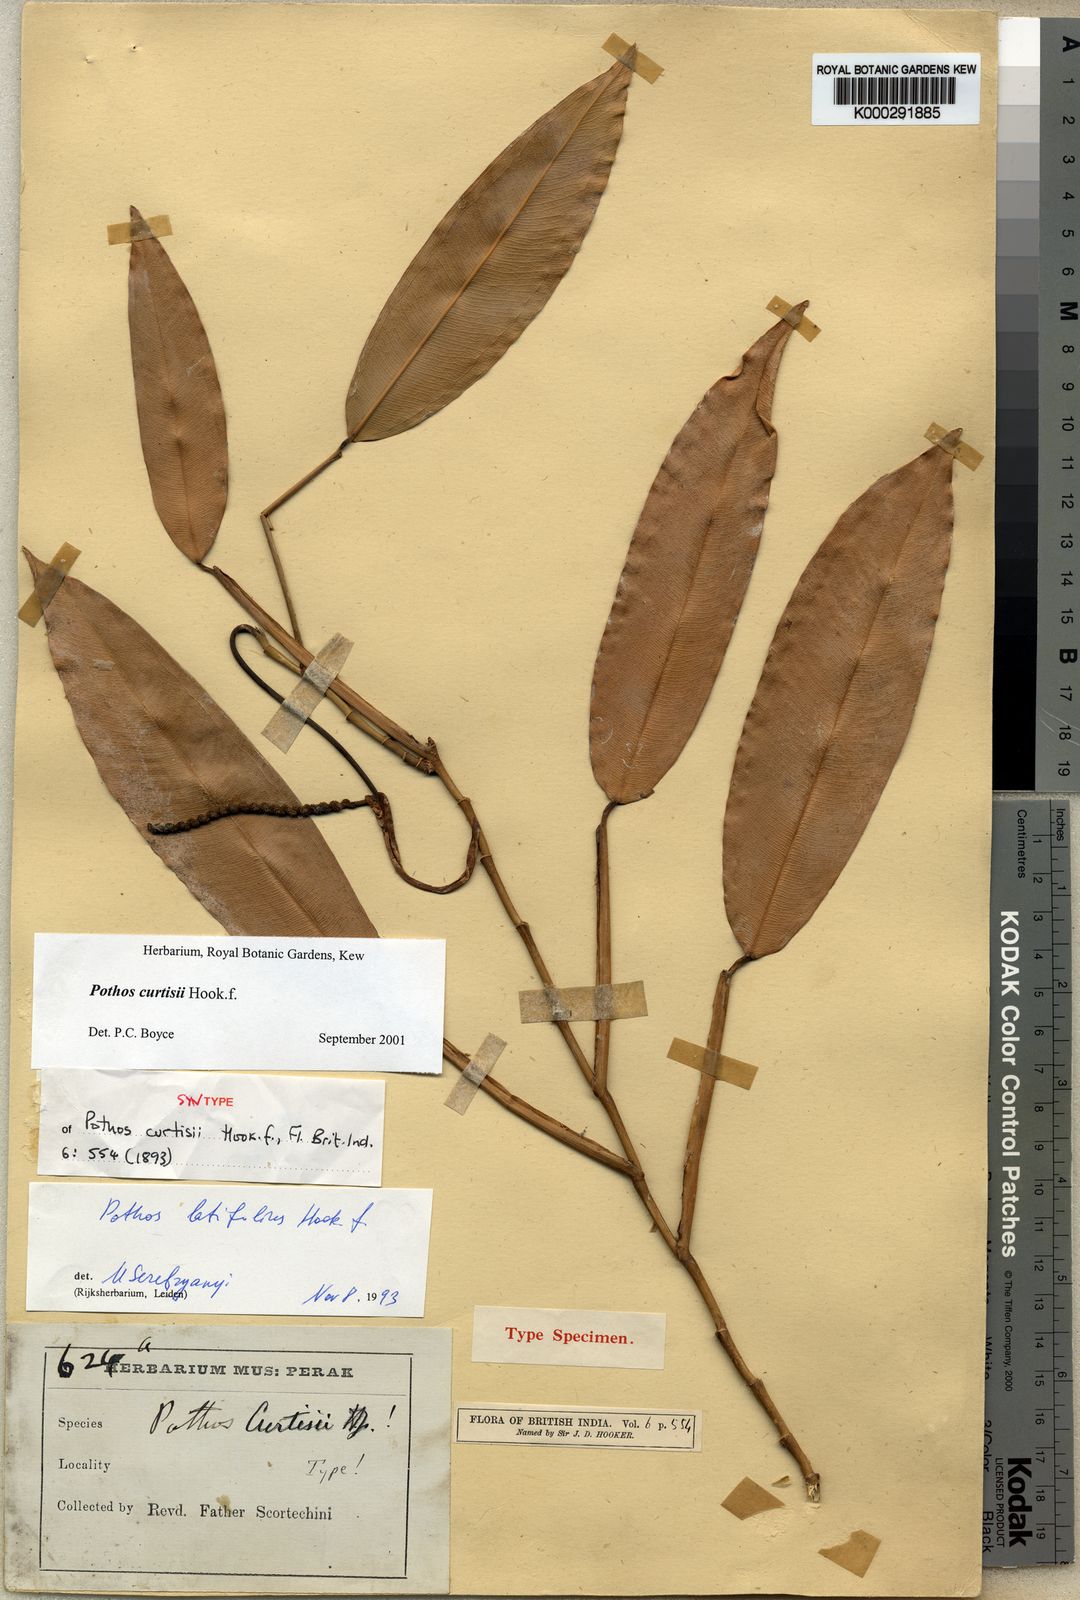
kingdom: Plantae
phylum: Tracheophyta
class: Liliopsida
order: Alismatales
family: Araceae
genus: Pothos
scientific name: Pothos curtisii
